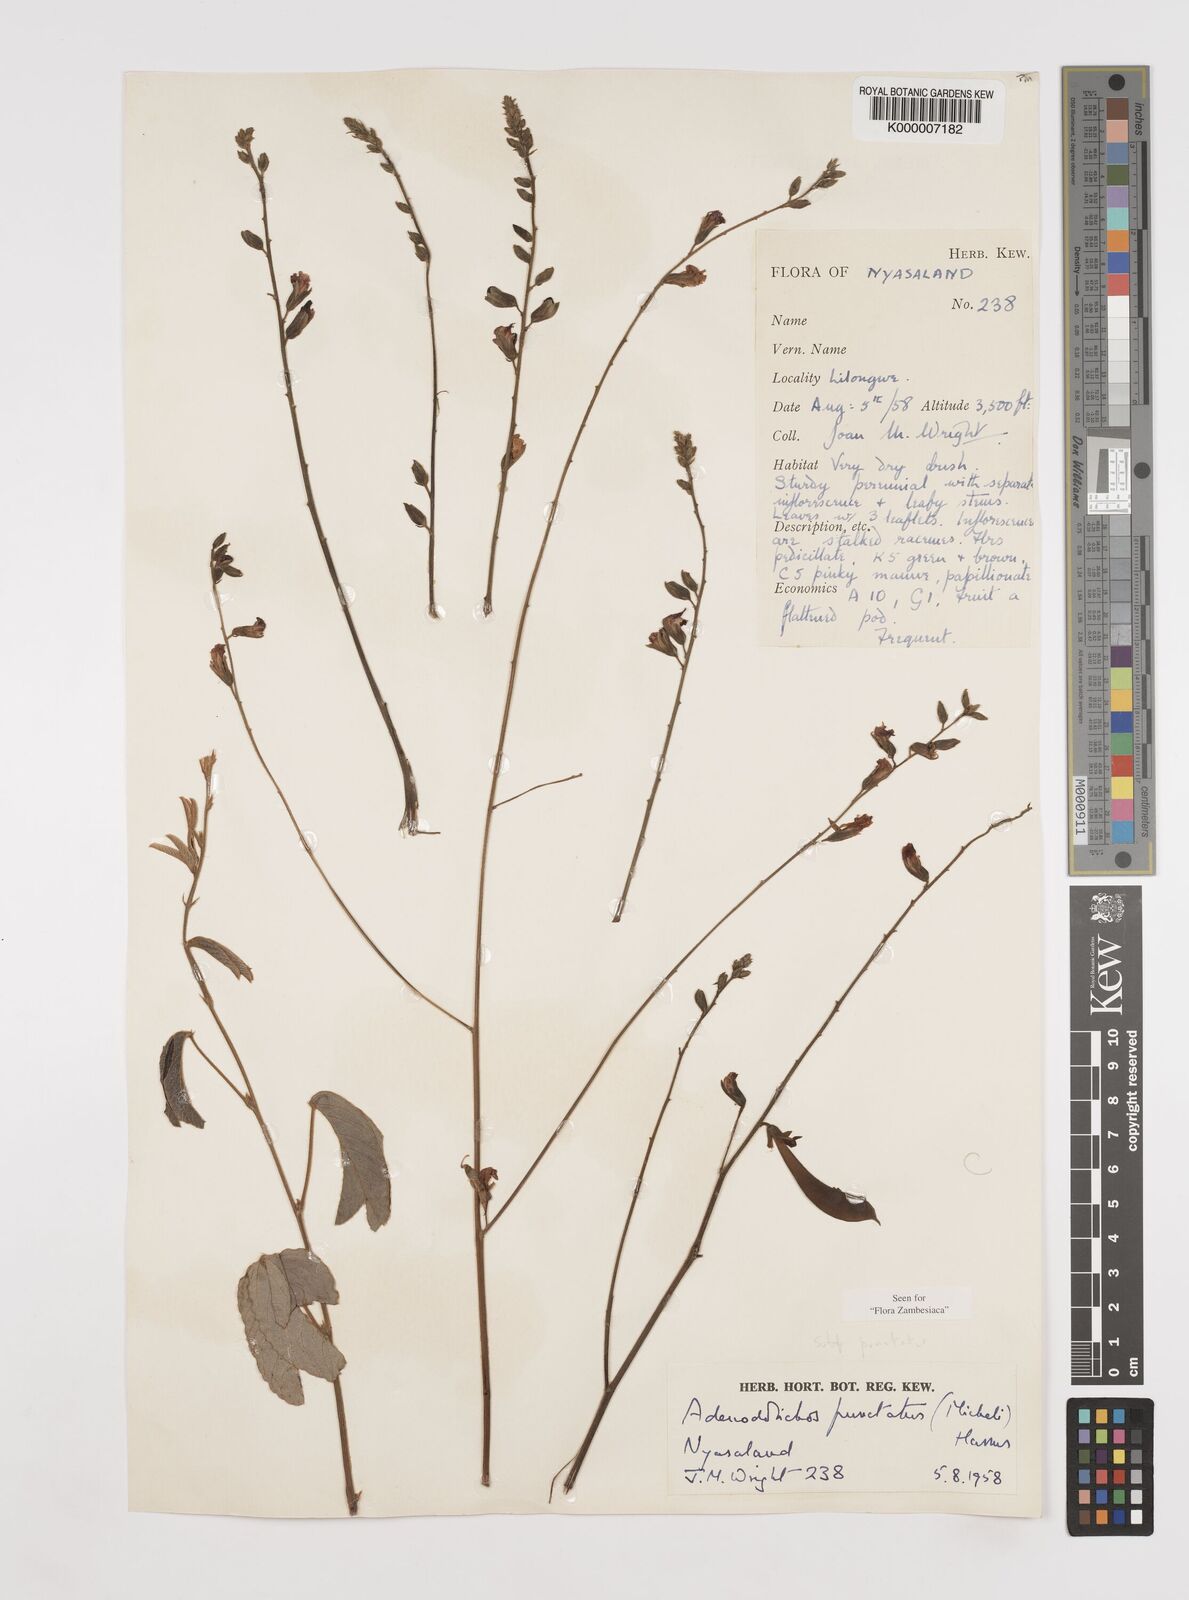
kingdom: Plantae
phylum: Tracheophyta
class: Magnoliopsida
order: Fabales
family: Fabaceae
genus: Adenodolichos
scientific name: Adenodolichos punctatus
